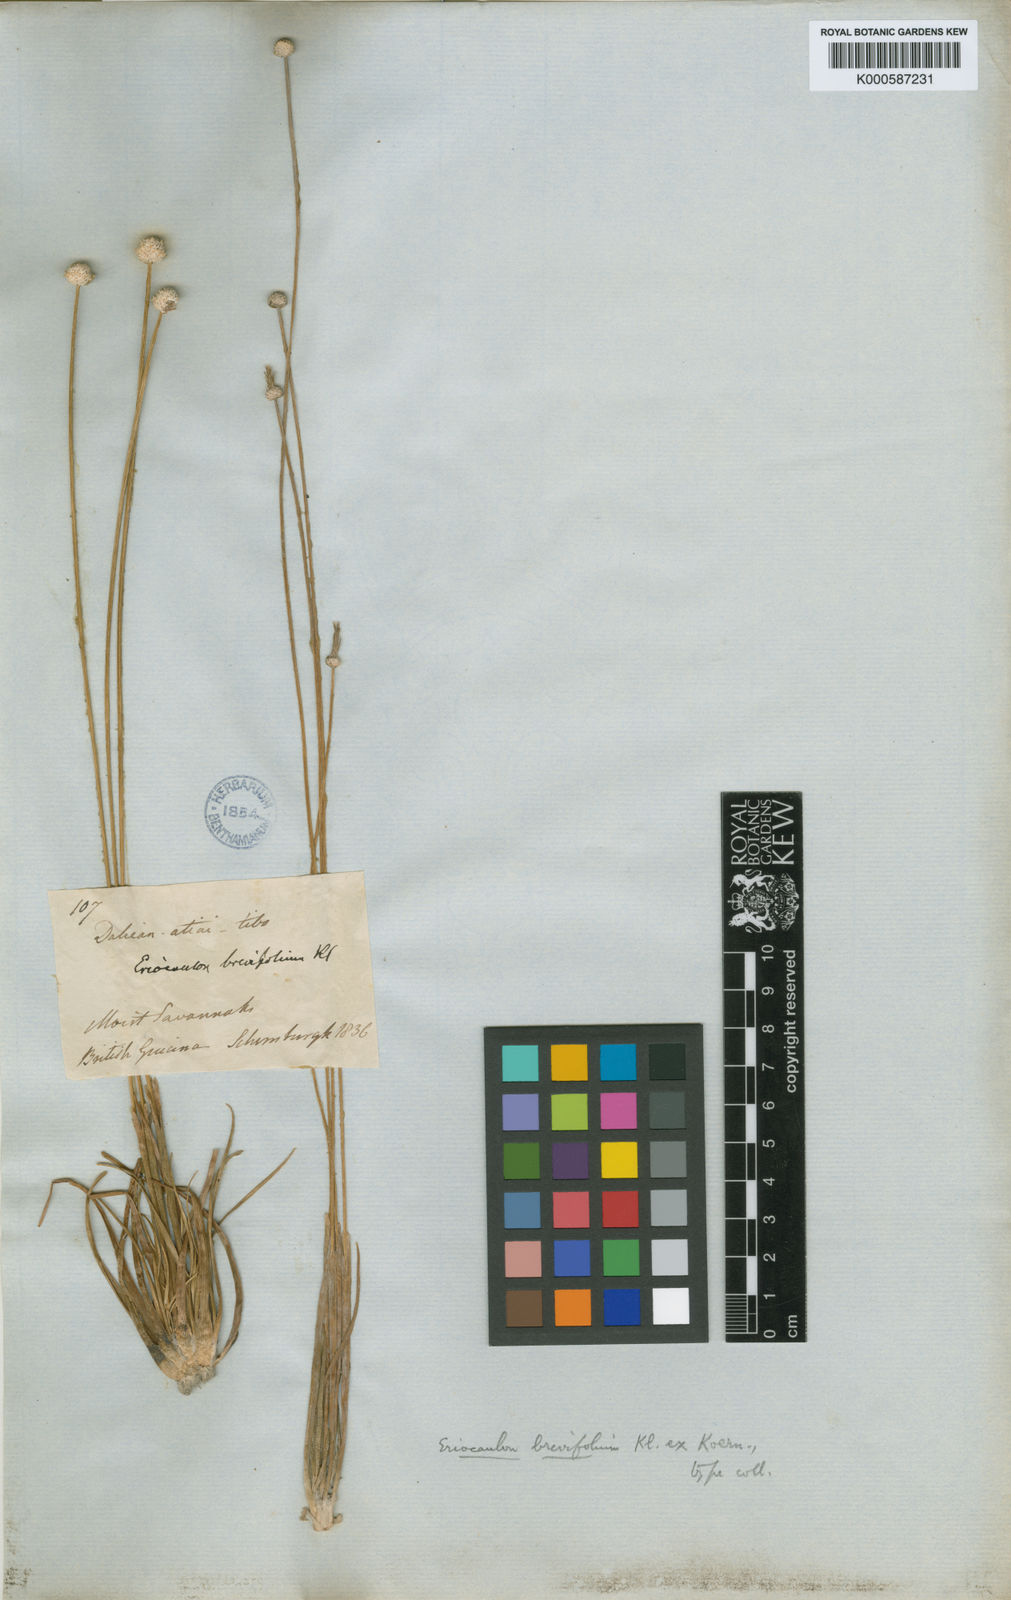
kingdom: Plantae
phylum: Tracheophyta
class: Liliopsida
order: Poales
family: Eriocaulaceae
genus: Eriocaulon
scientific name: Eriocaulon
